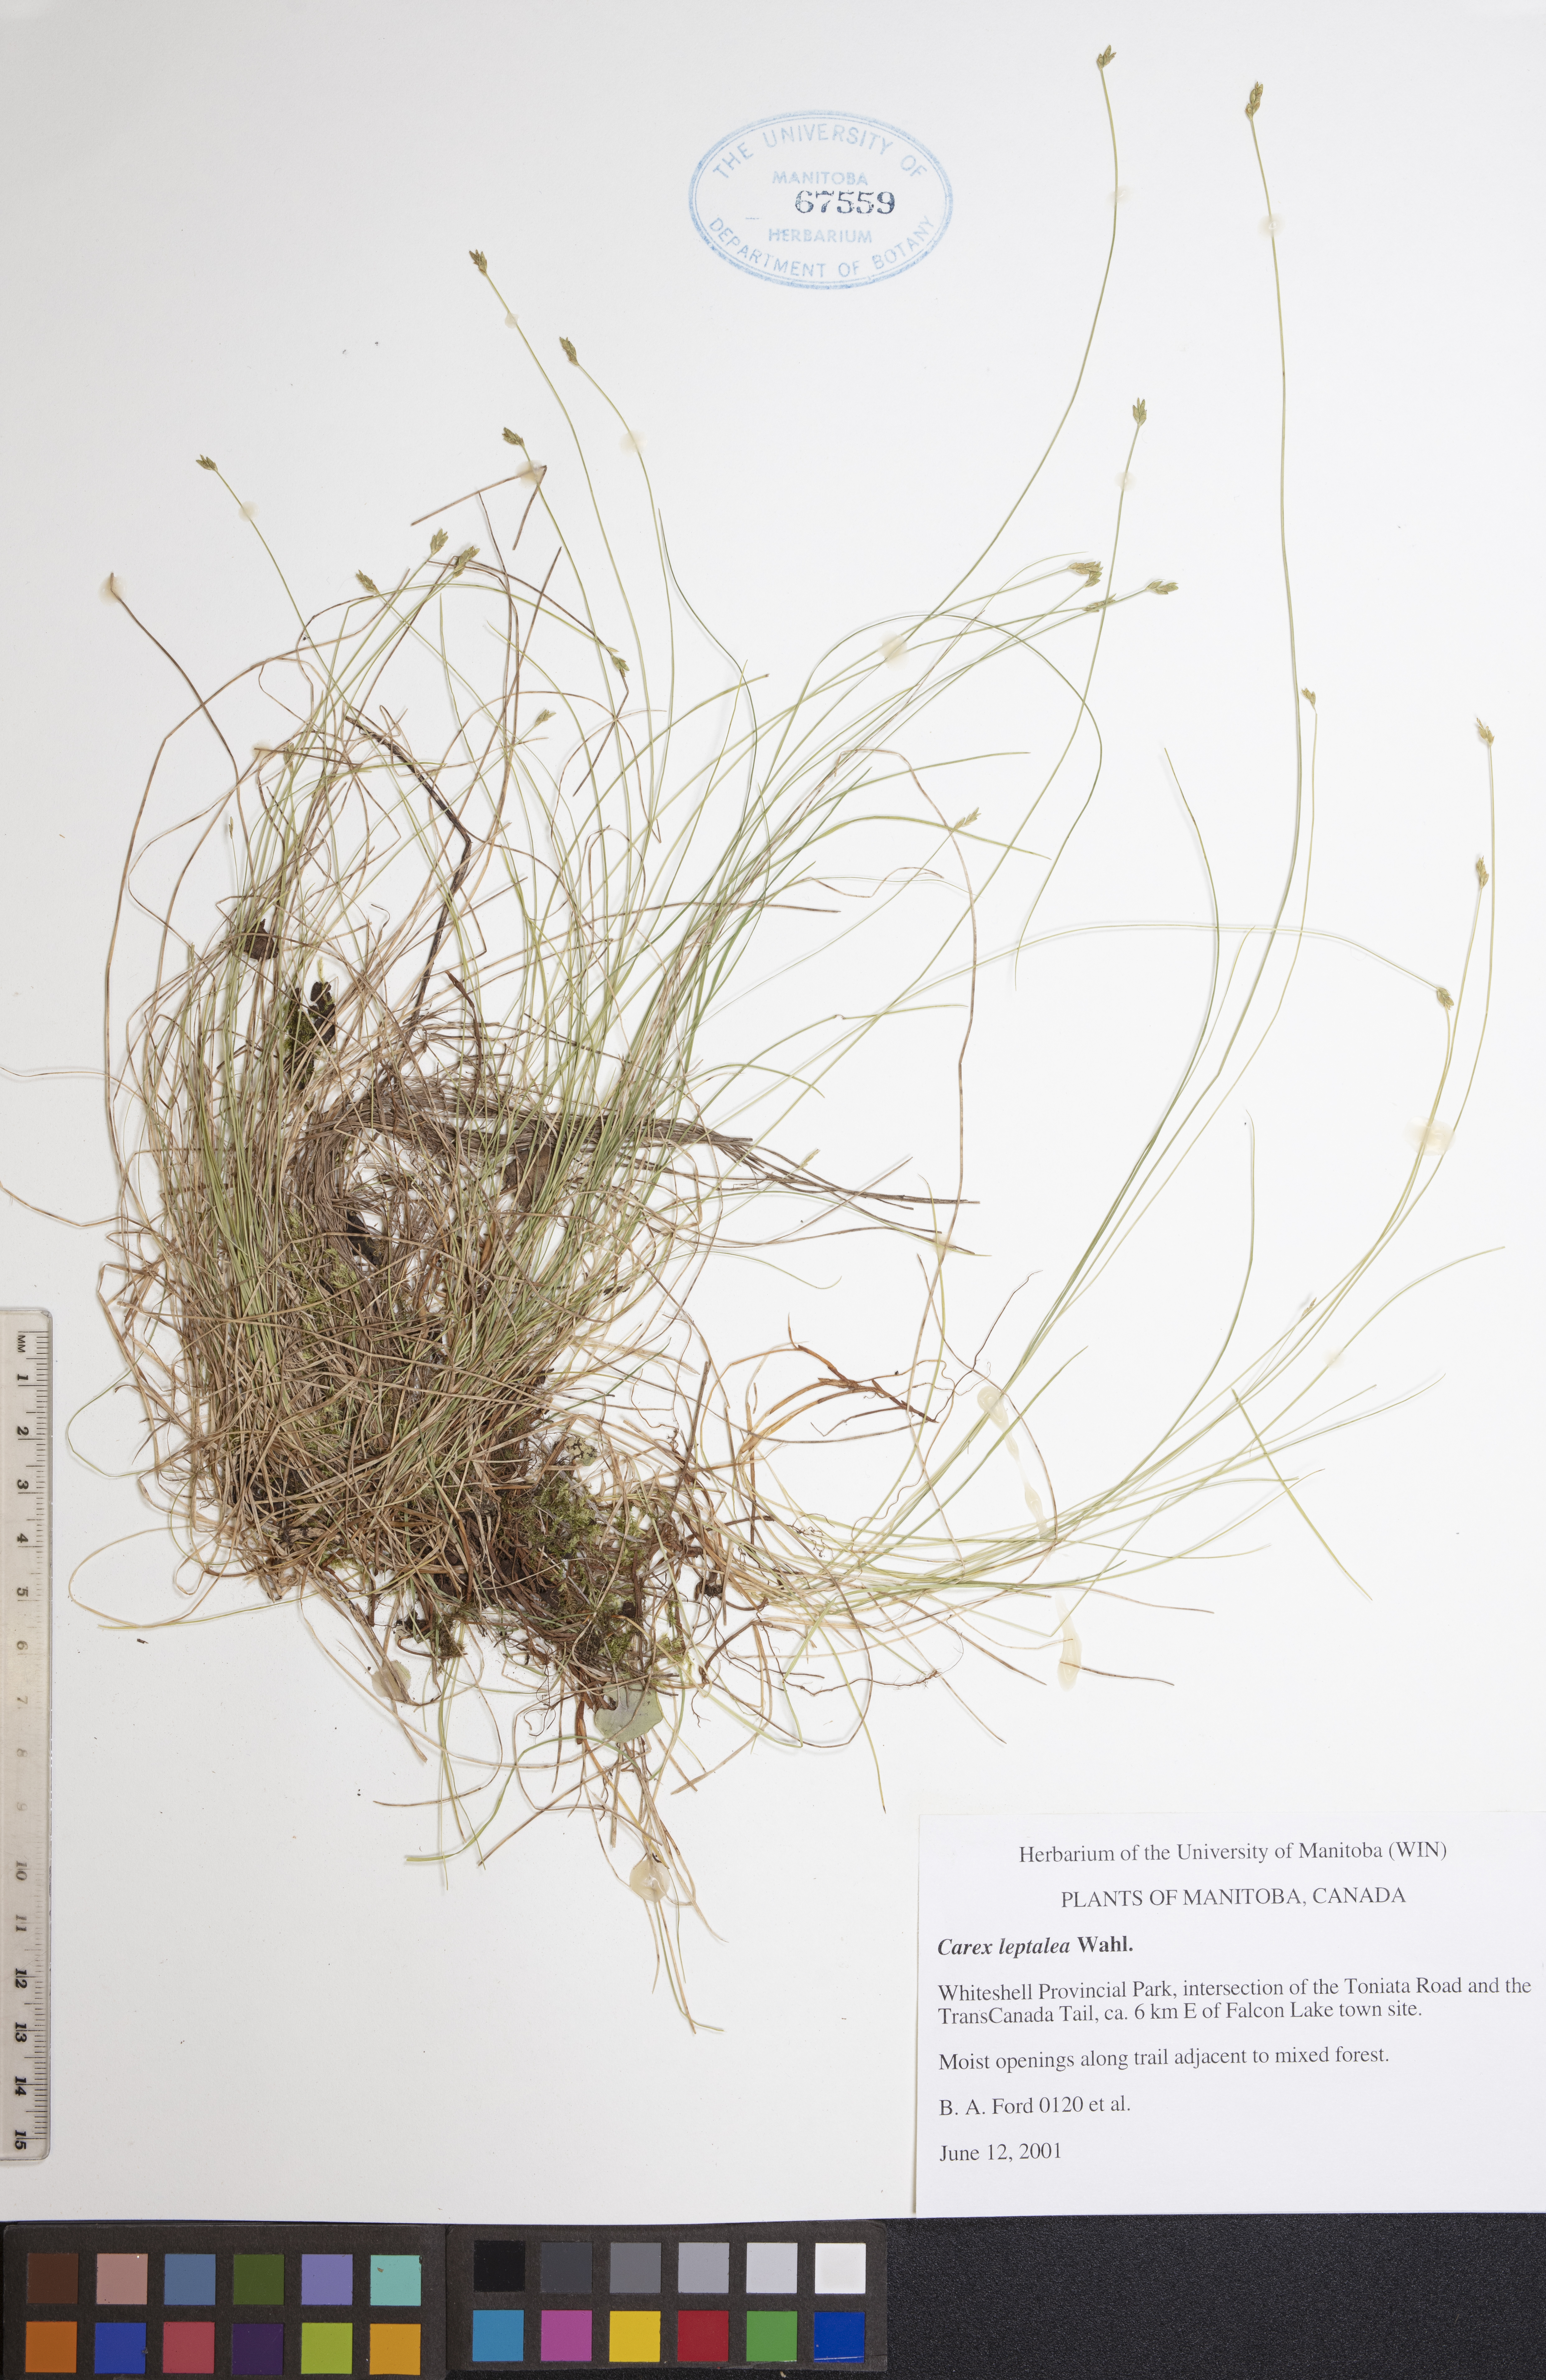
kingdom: Plantae
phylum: Tracheophyta
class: Liliopsida
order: Poales
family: Cyperaceae
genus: Carex
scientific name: Carex leptalea
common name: Bristly-stalked sedge
